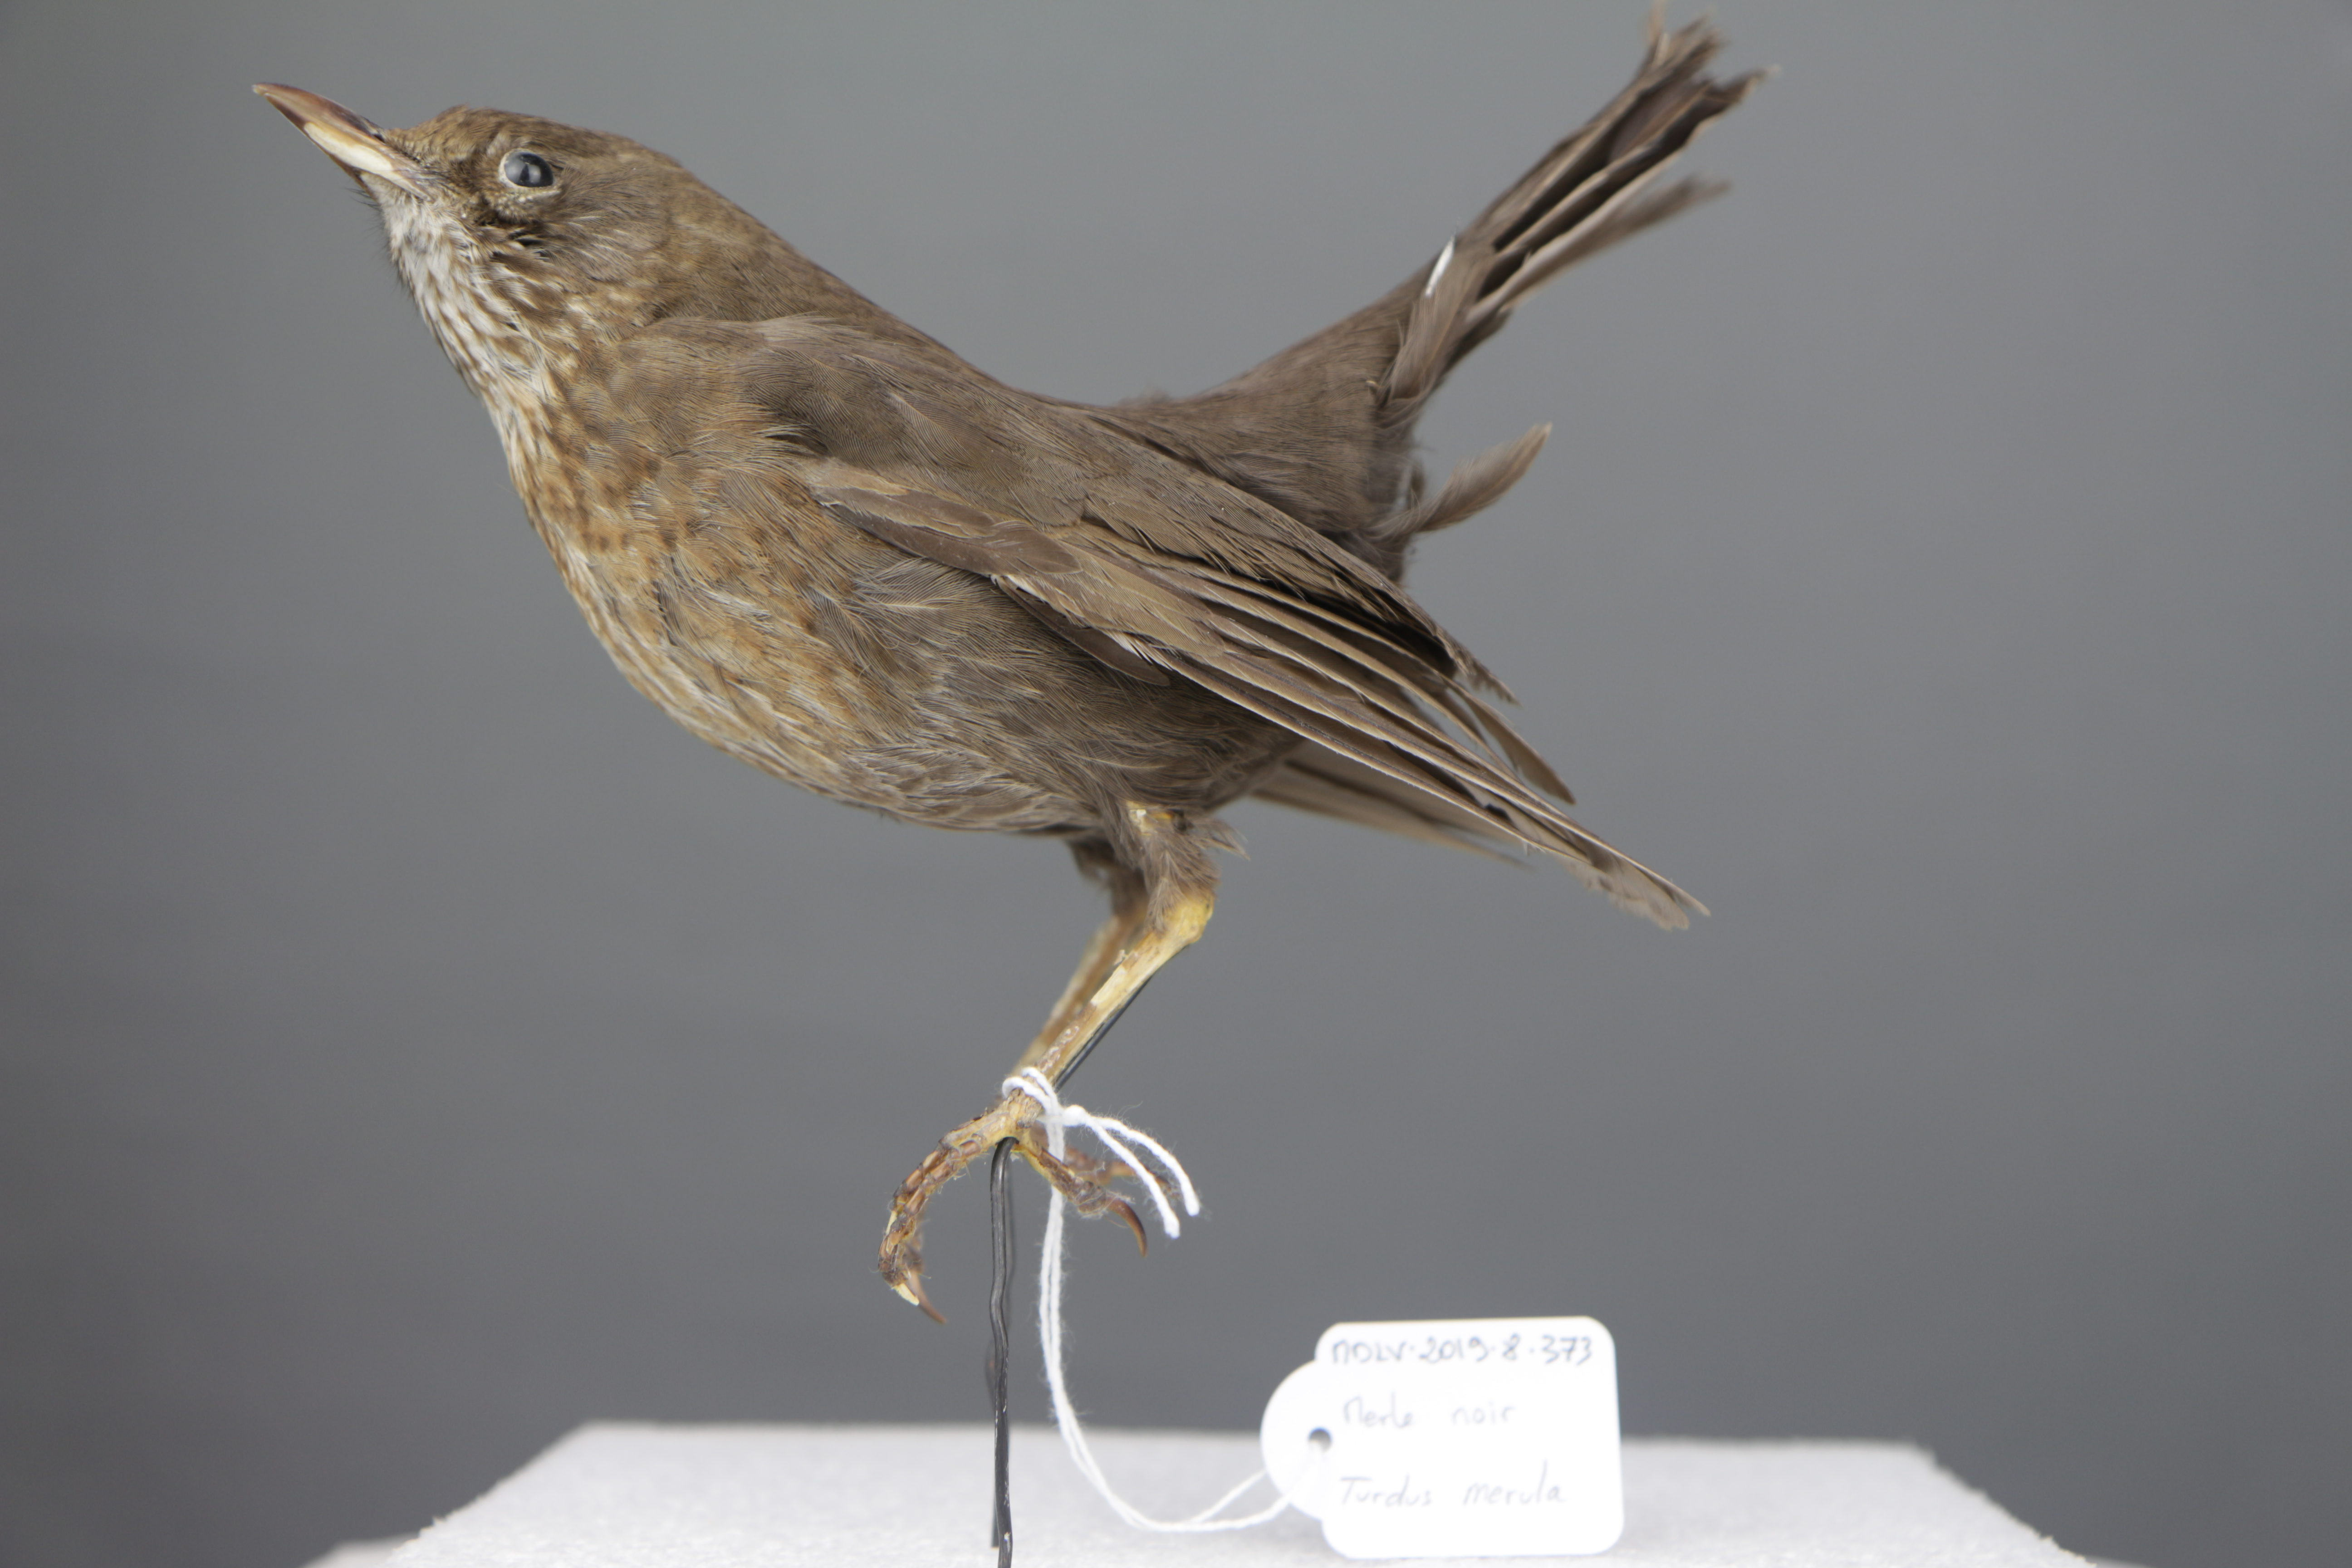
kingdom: Animalia
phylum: Chordata
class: Aves
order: Passeriformes
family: Turdidae
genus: Turdus
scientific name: Turdus merula
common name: Common blackbird
